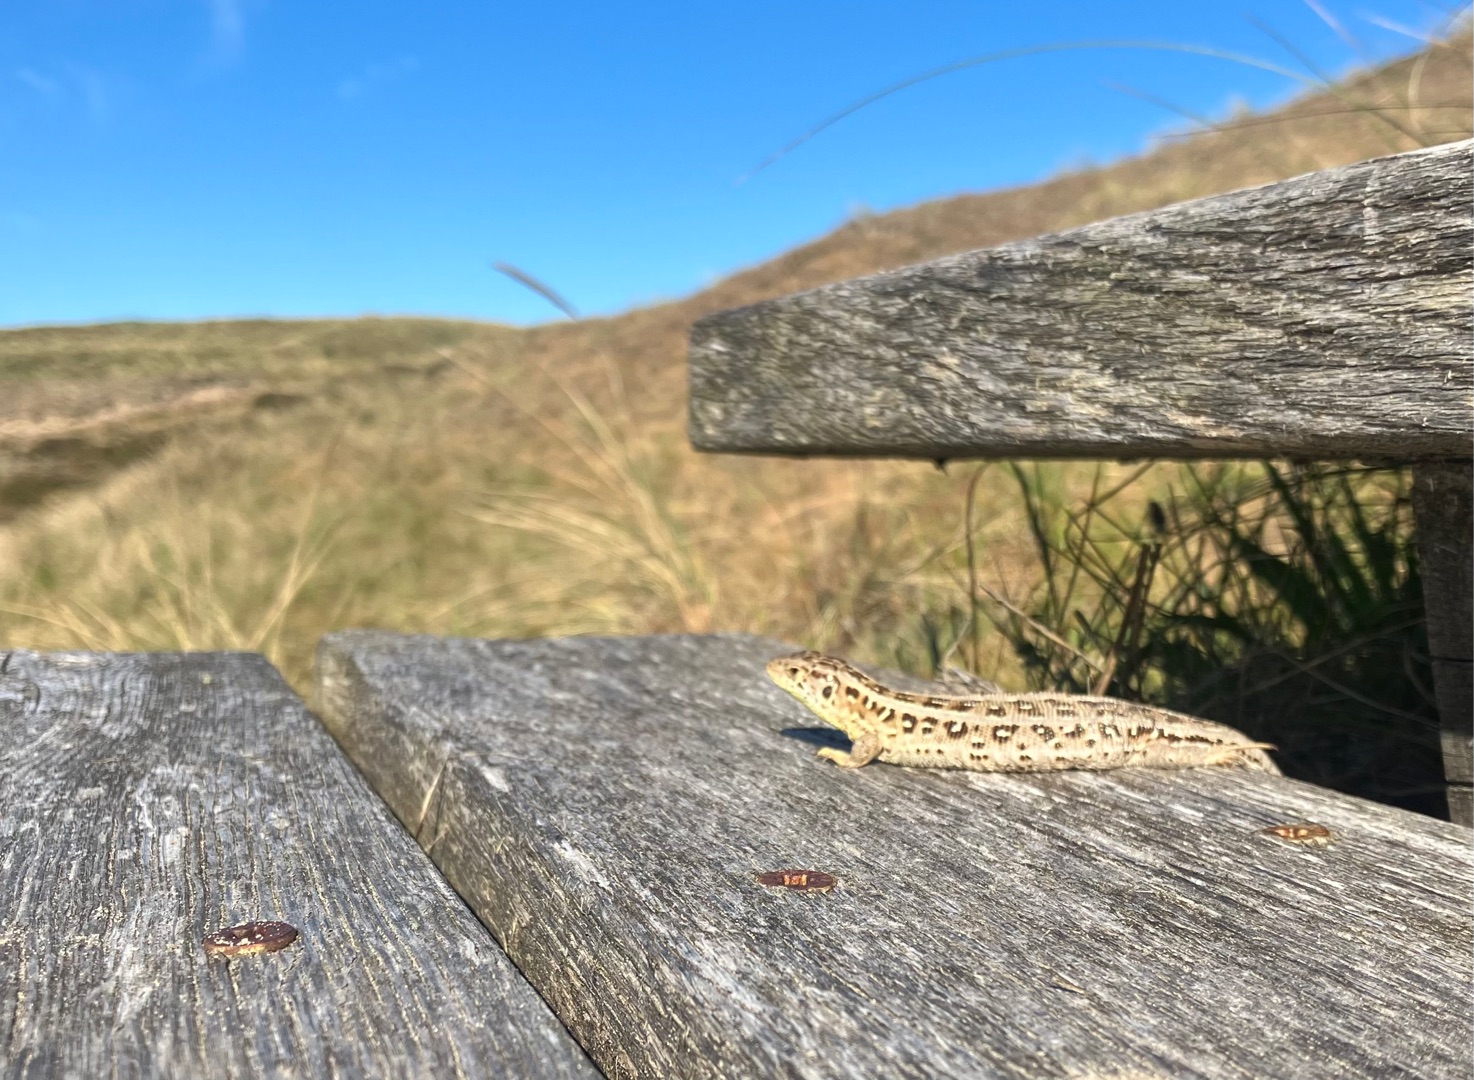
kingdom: Animalia
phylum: Chordata
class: Squamata
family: Lacertidae
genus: Lacerta
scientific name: Lacerta agilis
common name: Markfirben
